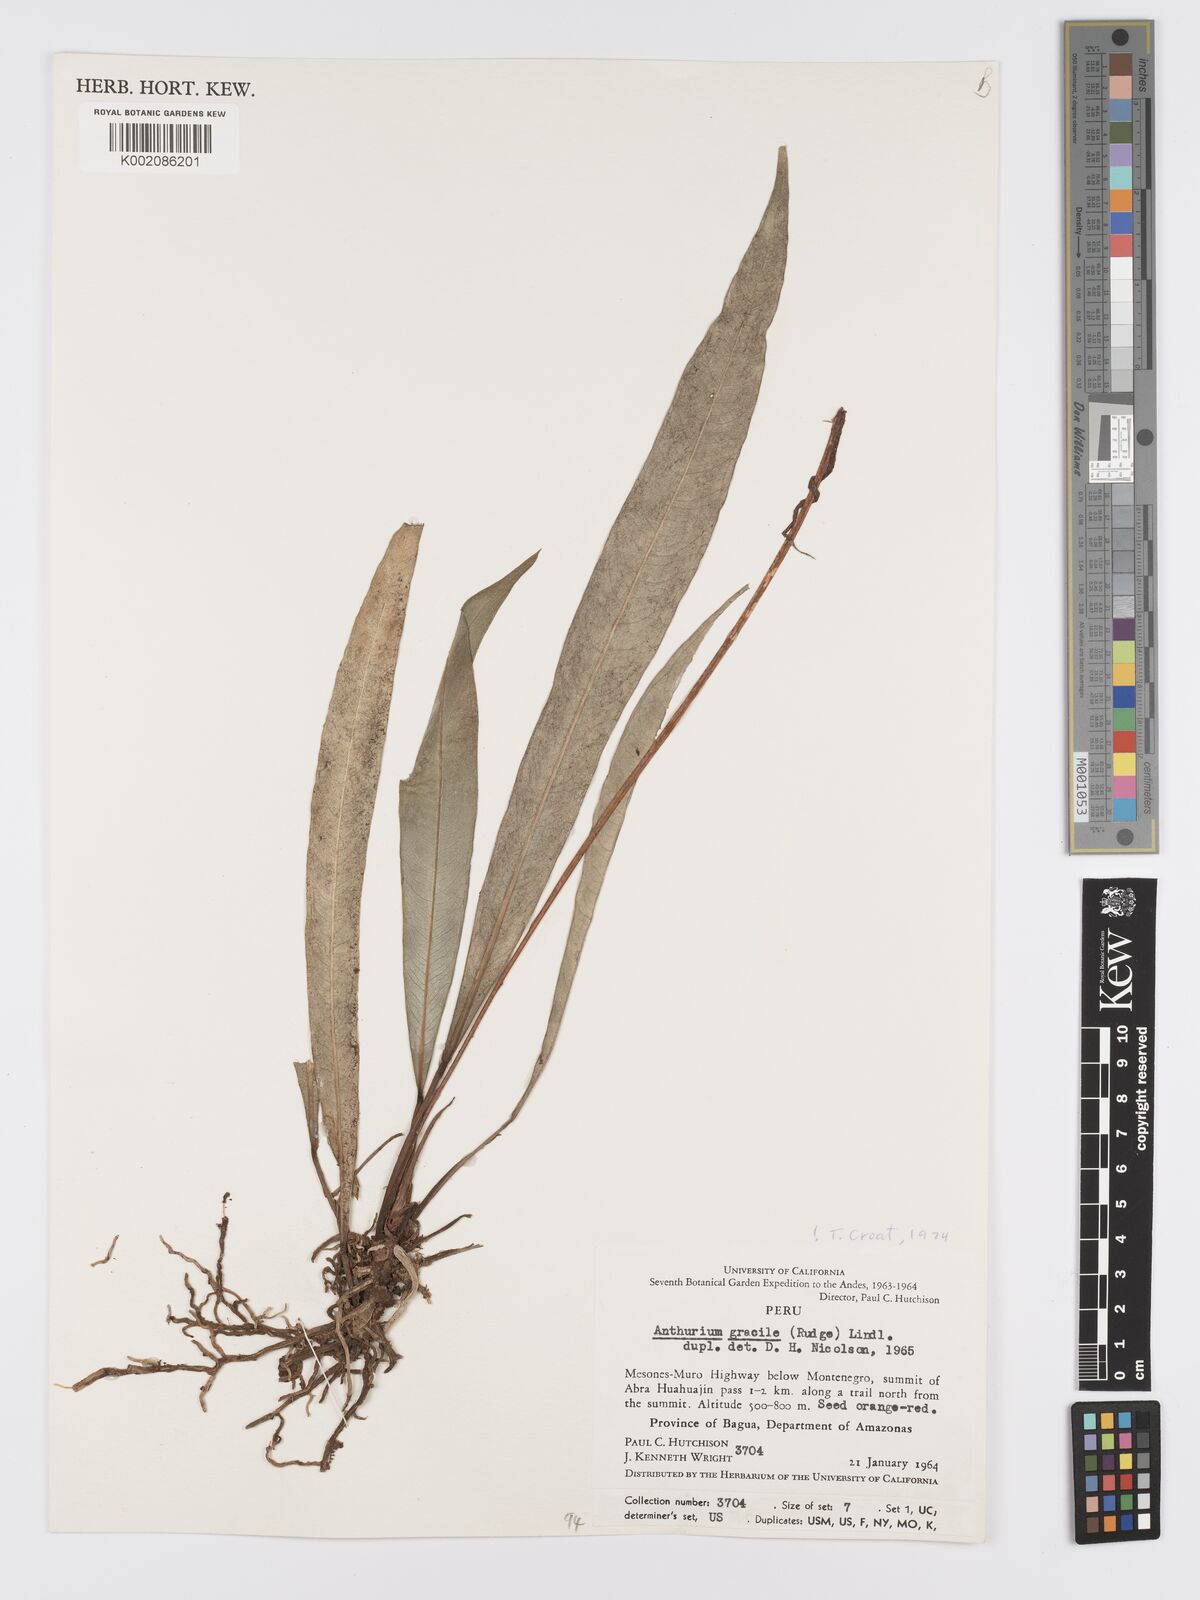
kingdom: Plantae
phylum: Tracheophyta
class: Liliopsida
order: Alismatales
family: Araceae
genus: Anthurium
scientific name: Anthurium gracile
